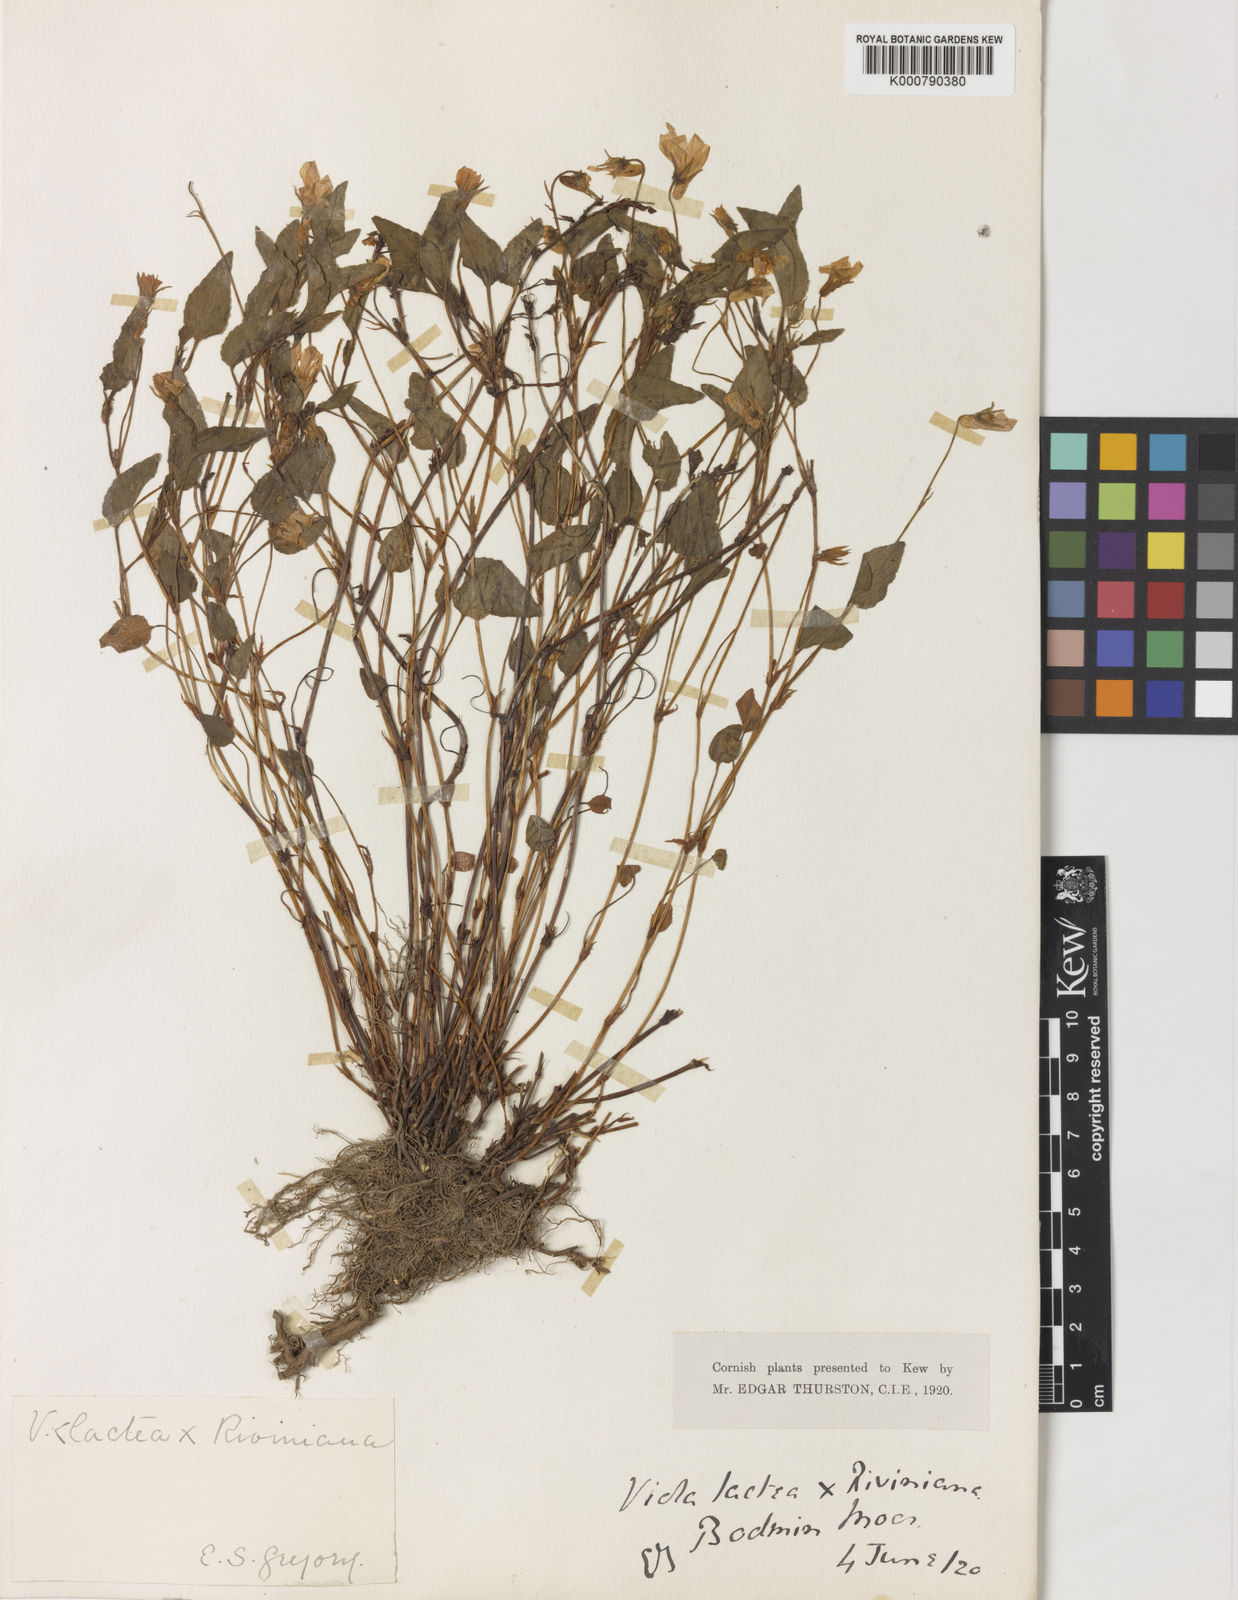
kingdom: Plantae
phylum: Tracheophyta
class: Magnoliopsida
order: Malpighiales
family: Violaceae
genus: Viola
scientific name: Viola lactea
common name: Pale dog-violet
